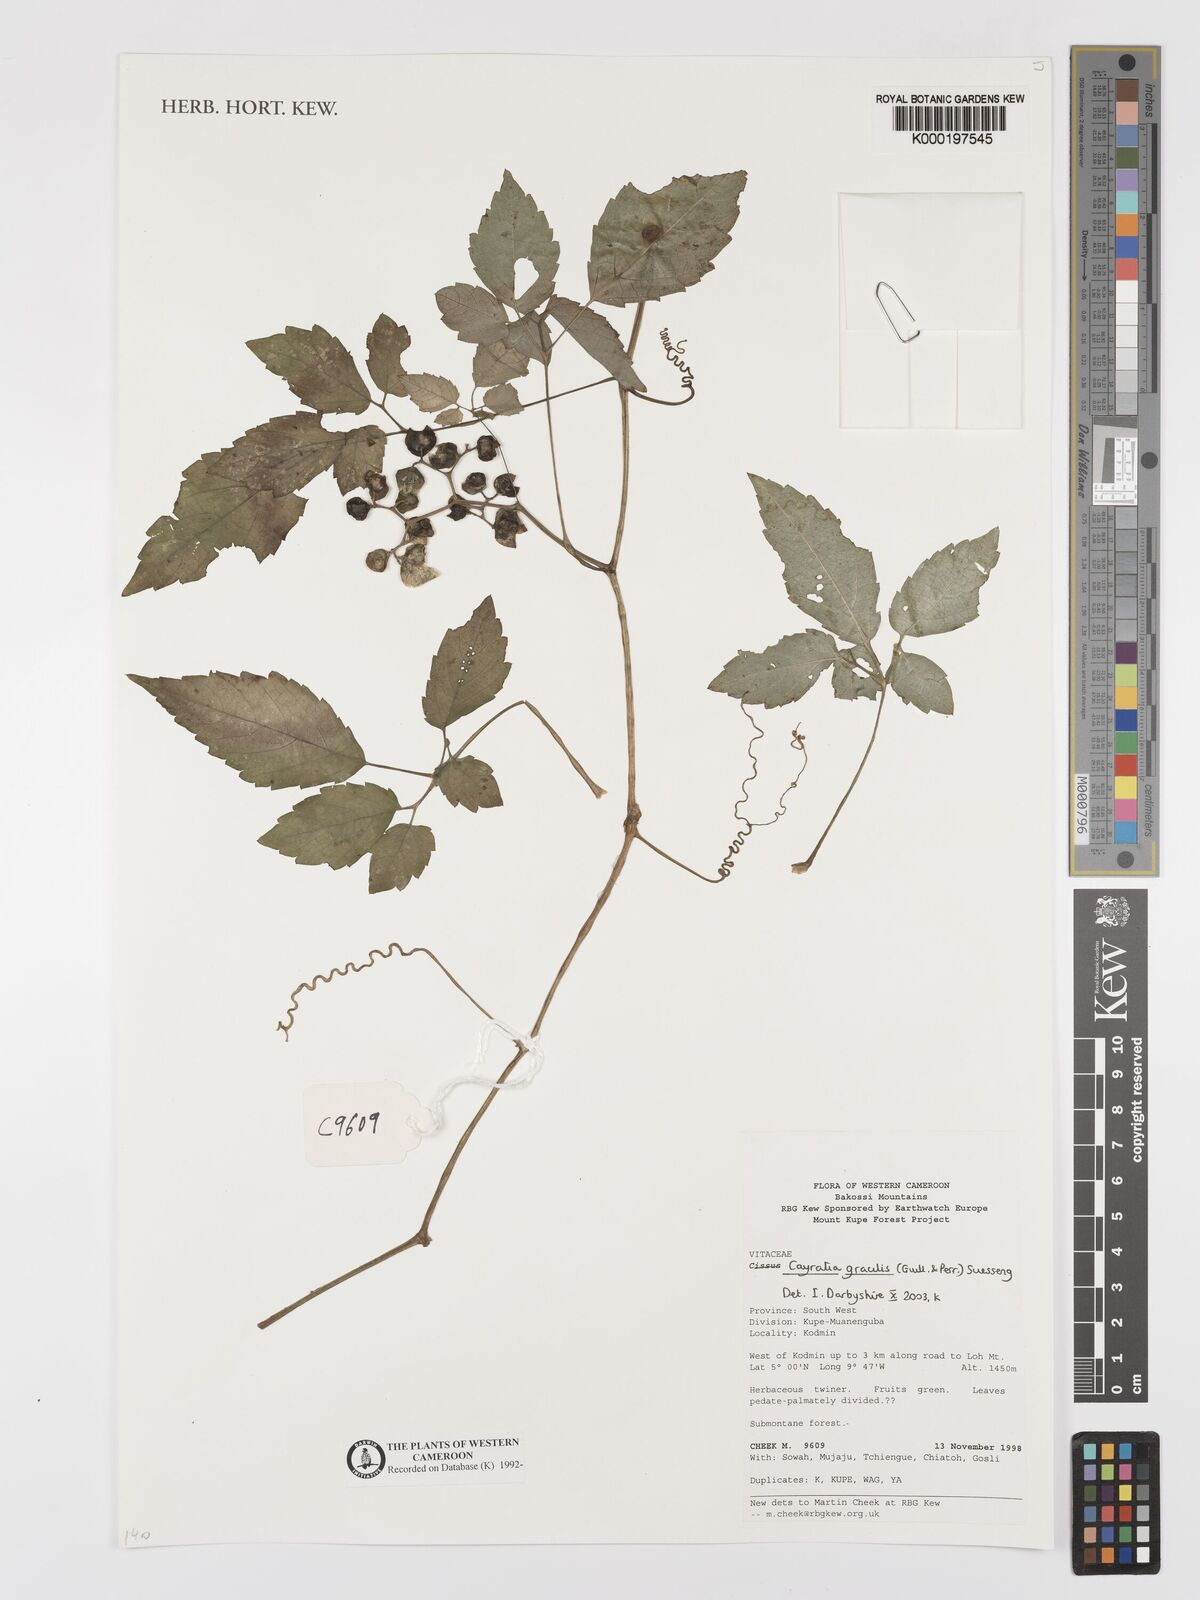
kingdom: Plantae
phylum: Tracheophyta
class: Magnoliopsida
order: Vitales
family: Vitaceae
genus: Afrocayratia
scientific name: Afrocayratia gracilis
